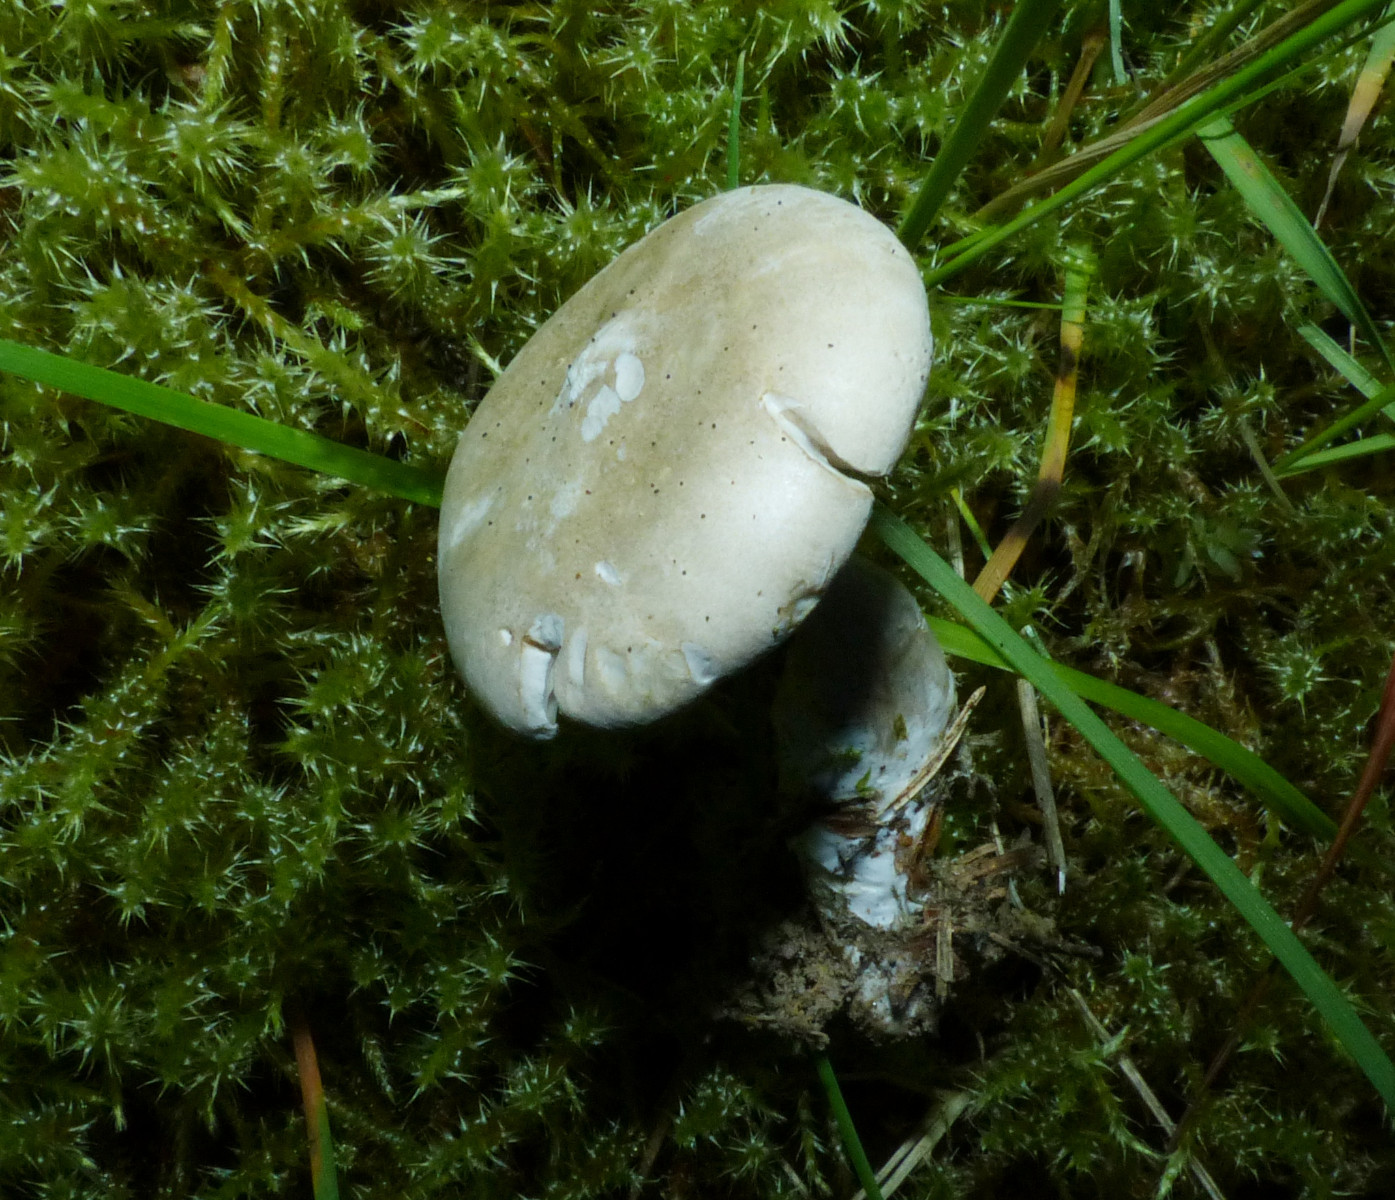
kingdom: Fungi
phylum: Basidiomycota
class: Agaricomycetes
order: Agaricales
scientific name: Agaricales
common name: champignonordenen
